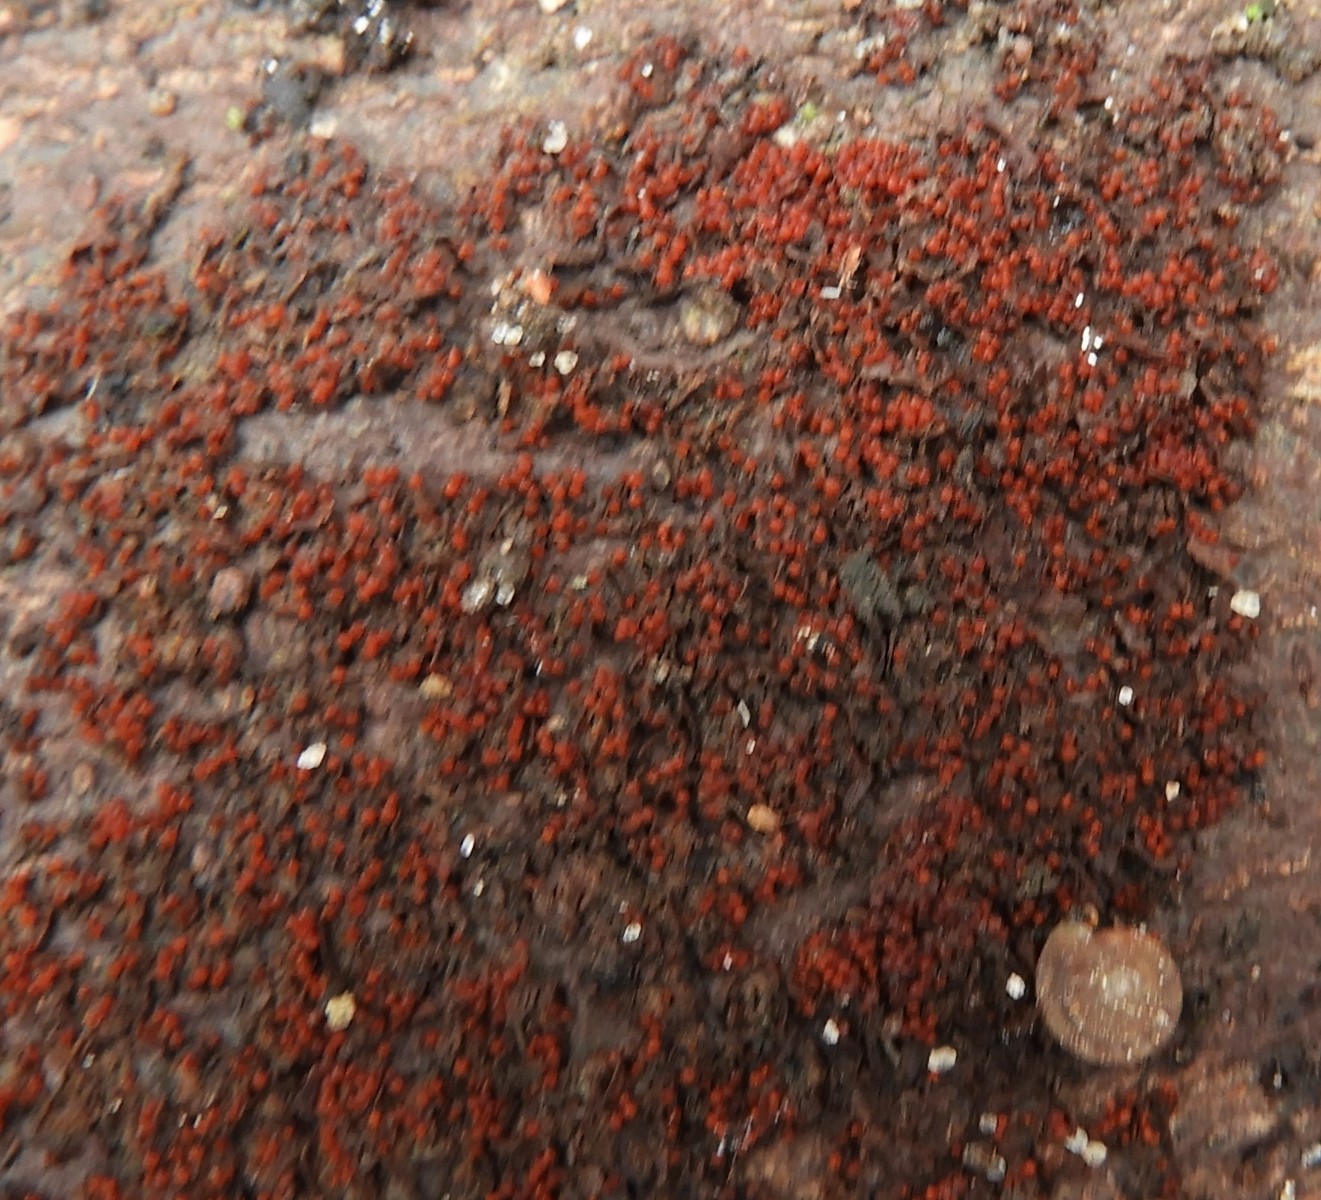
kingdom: Fungi
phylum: Ascomycota
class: Sordariomycetes
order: Hypocreales
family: Nectriaceae
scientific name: Nectriaceae
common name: cinnobersvampfamilien
